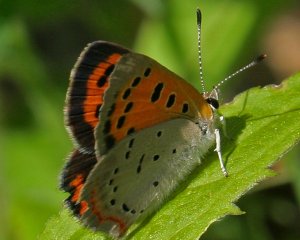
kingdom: Animalia
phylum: Arthropoda
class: Insecta
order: Lepidoptera
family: Lycaenidae
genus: Lycaena
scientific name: Lycaena phlaeas
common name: American Copper
